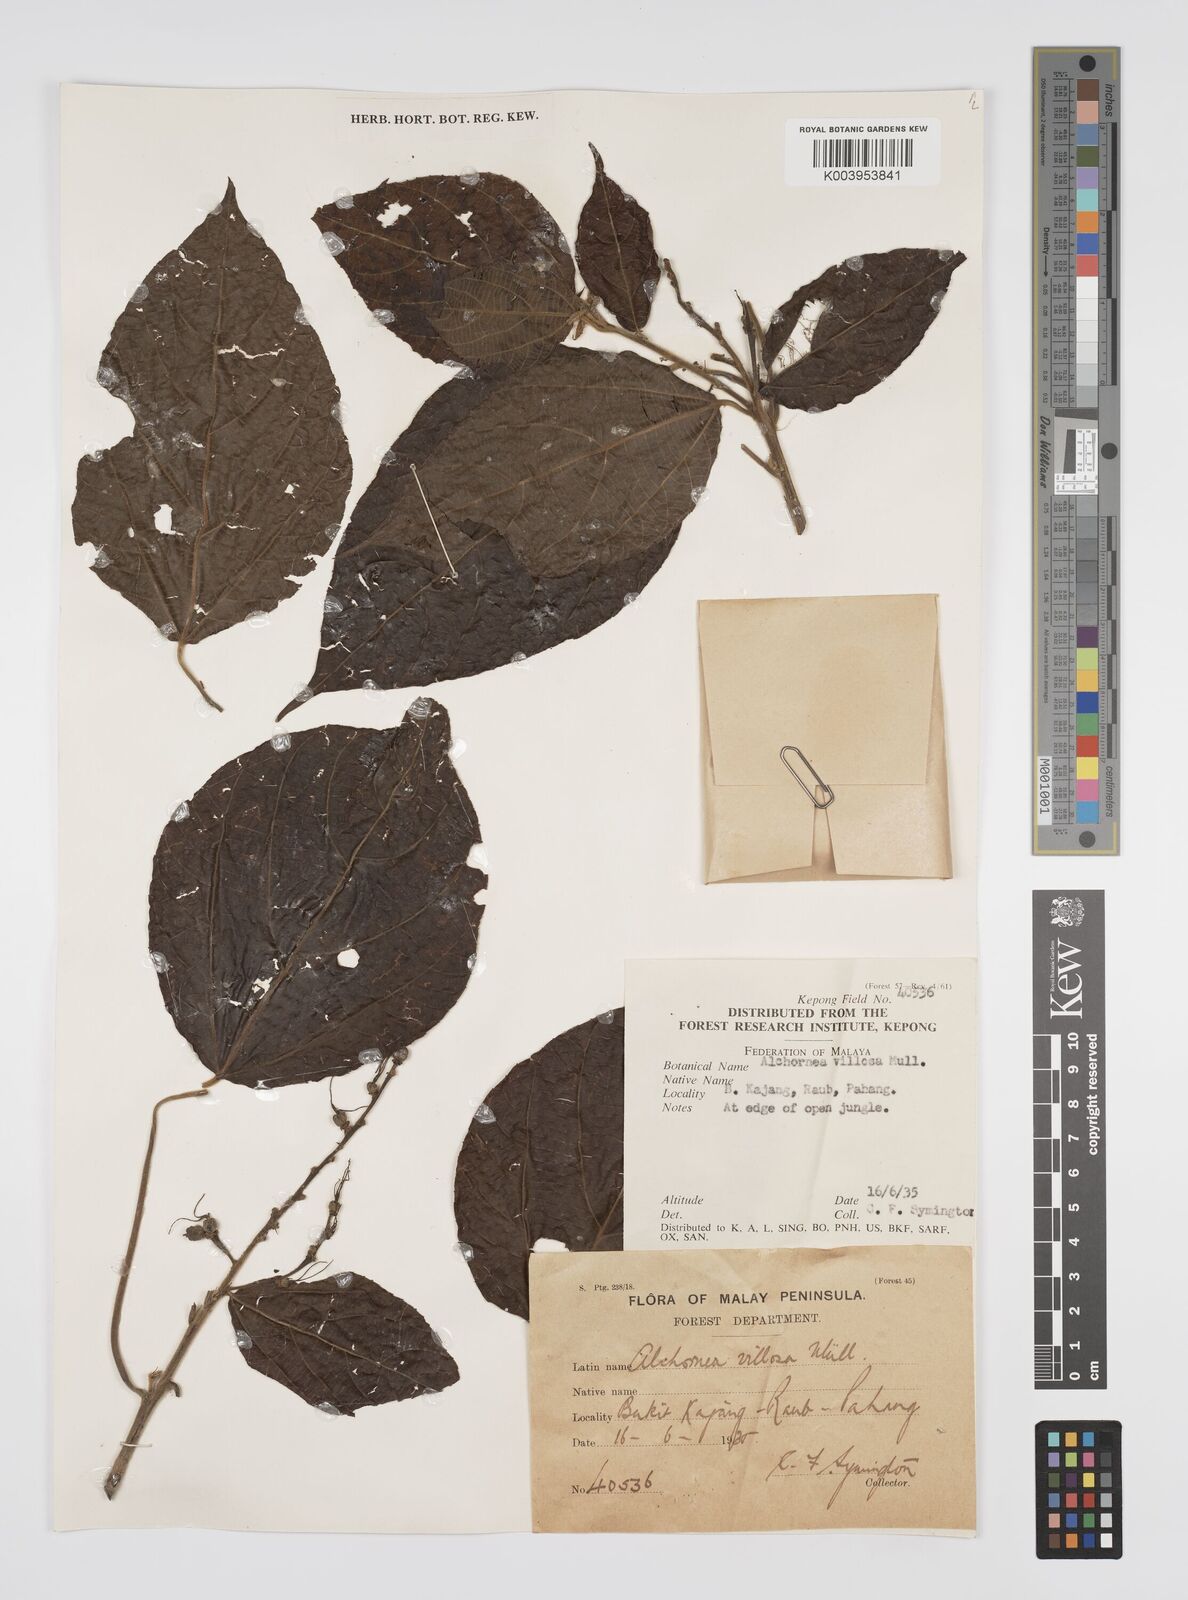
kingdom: Plantae
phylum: Tracheophyta
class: Magnoliopsida
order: Malpighiales
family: Euphorbiaceae
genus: Alchornea
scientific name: Alchornea tiliifolia
